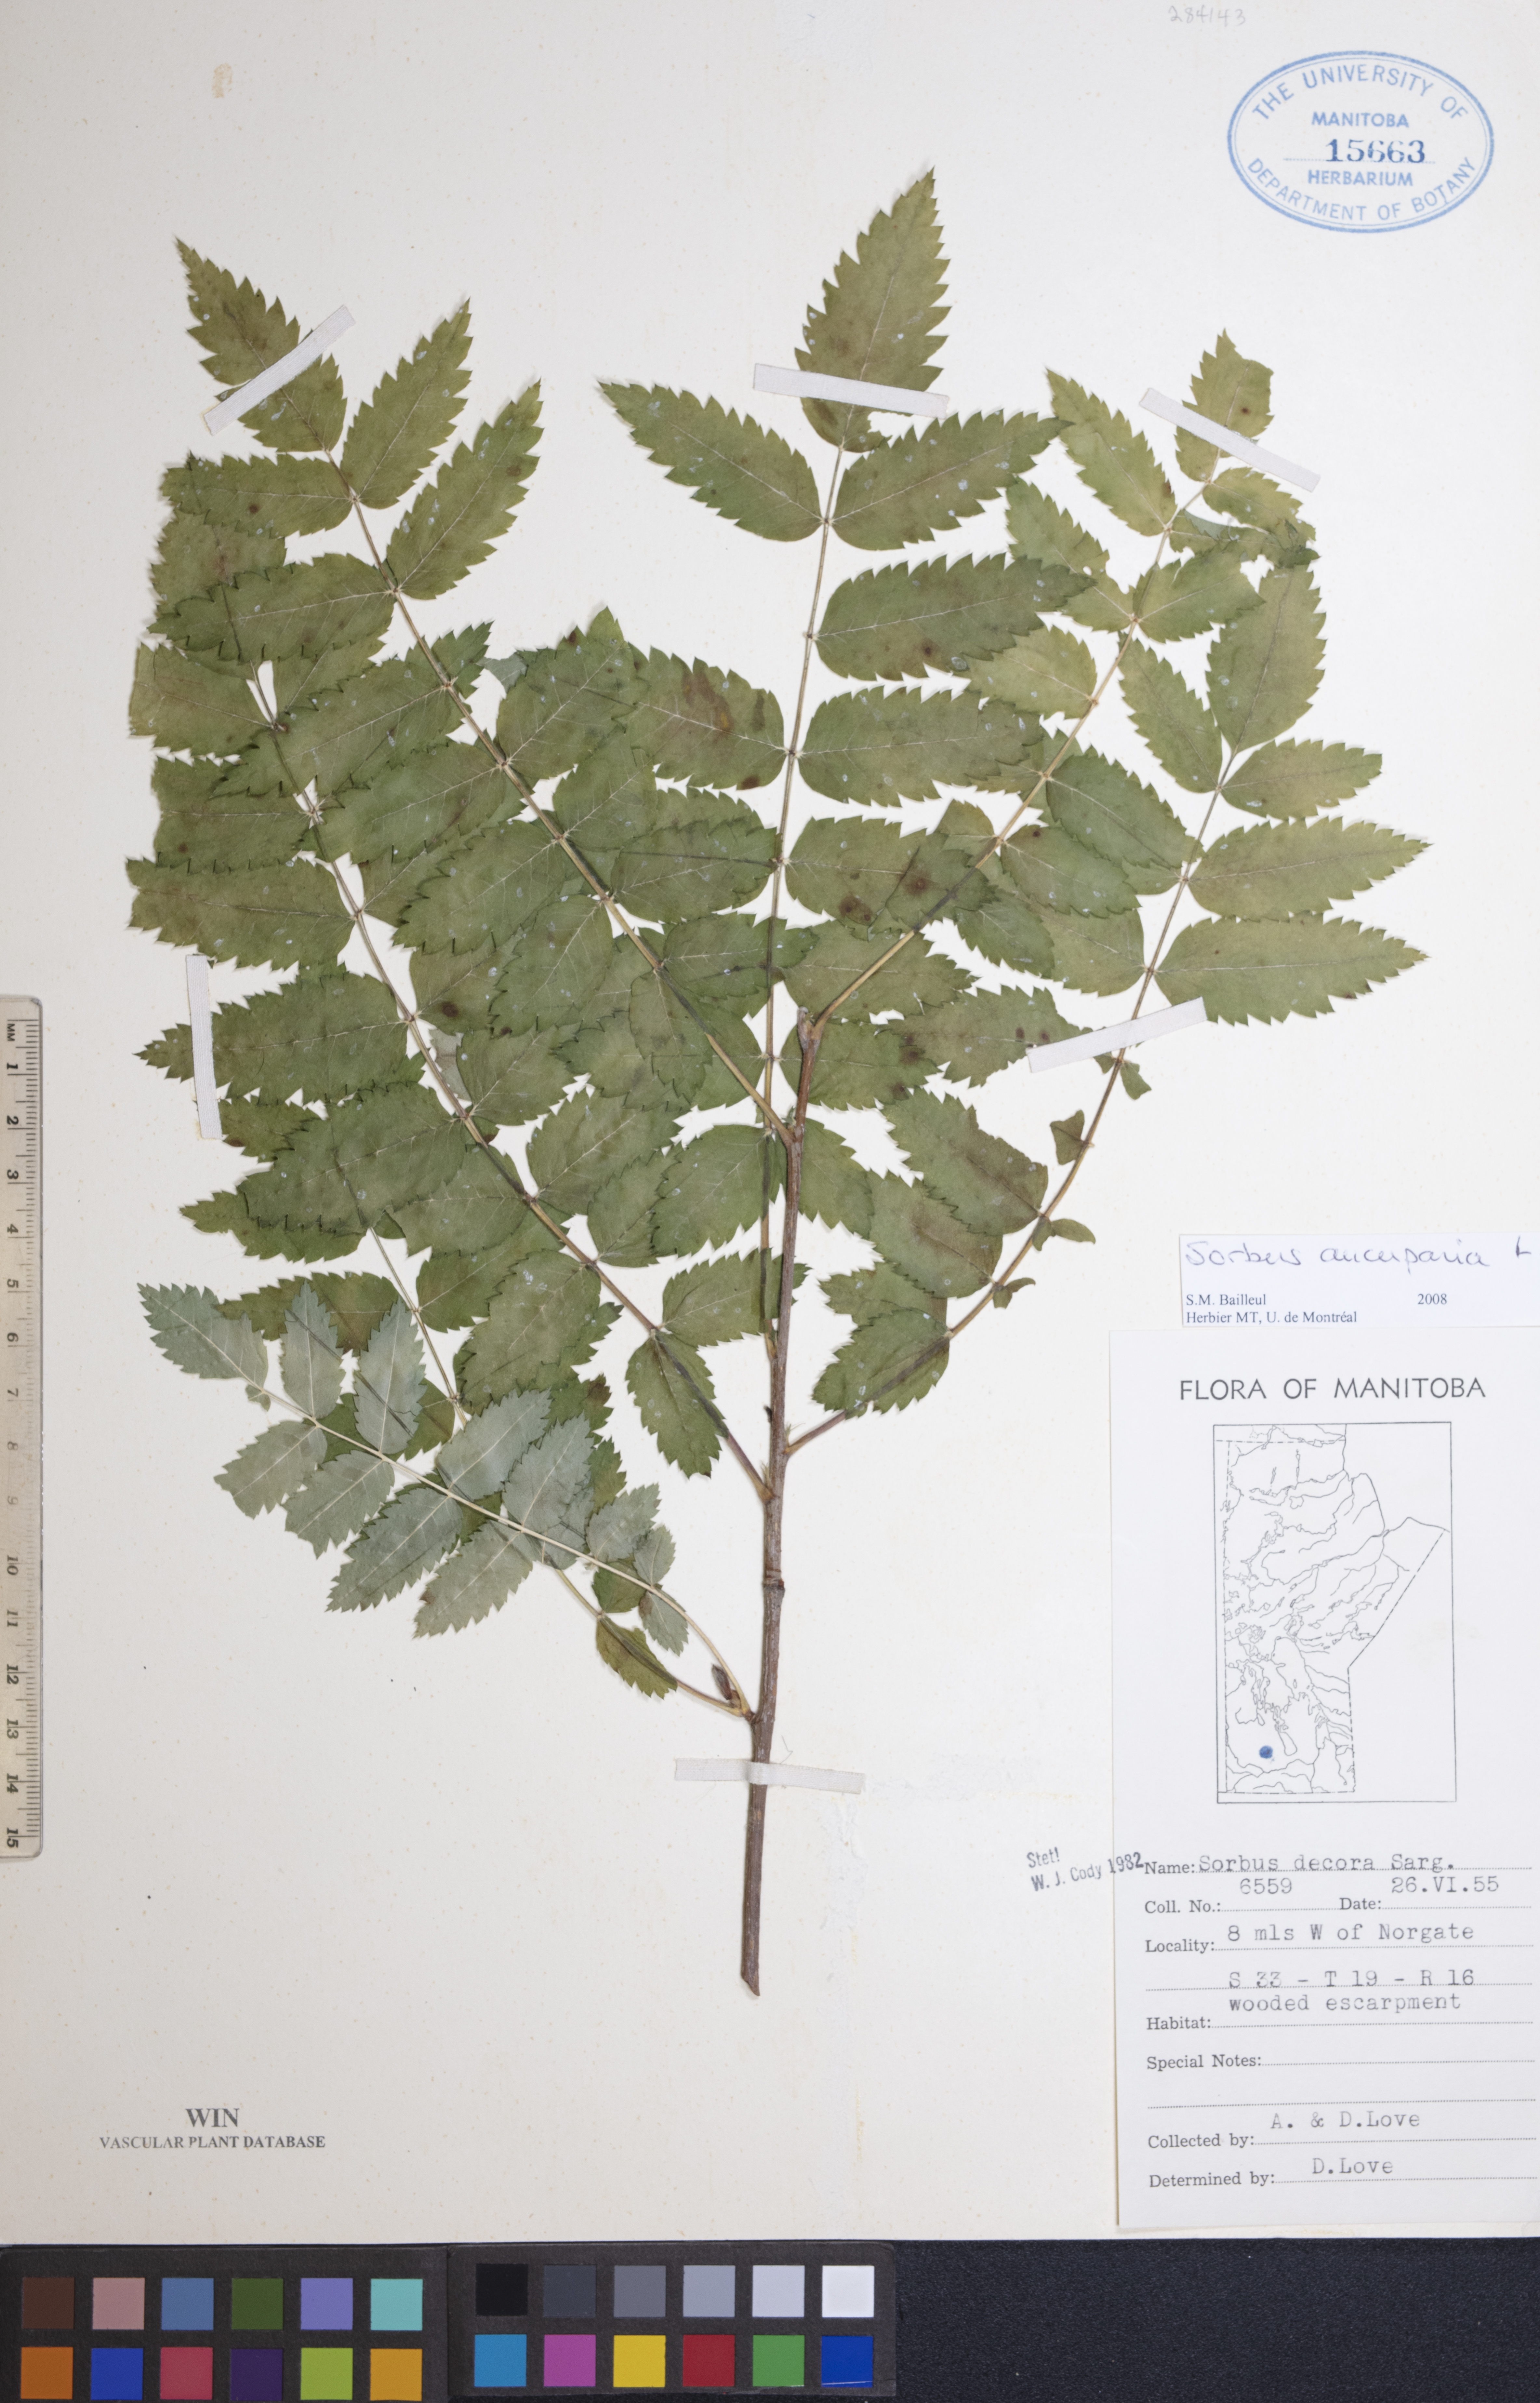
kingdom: Plantae
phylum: Tracheophyta
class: Magnoliopsida
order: Rosales
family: Rosaceae
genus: Sorbus
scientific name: Sorbus aucuparia
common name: Rowan
